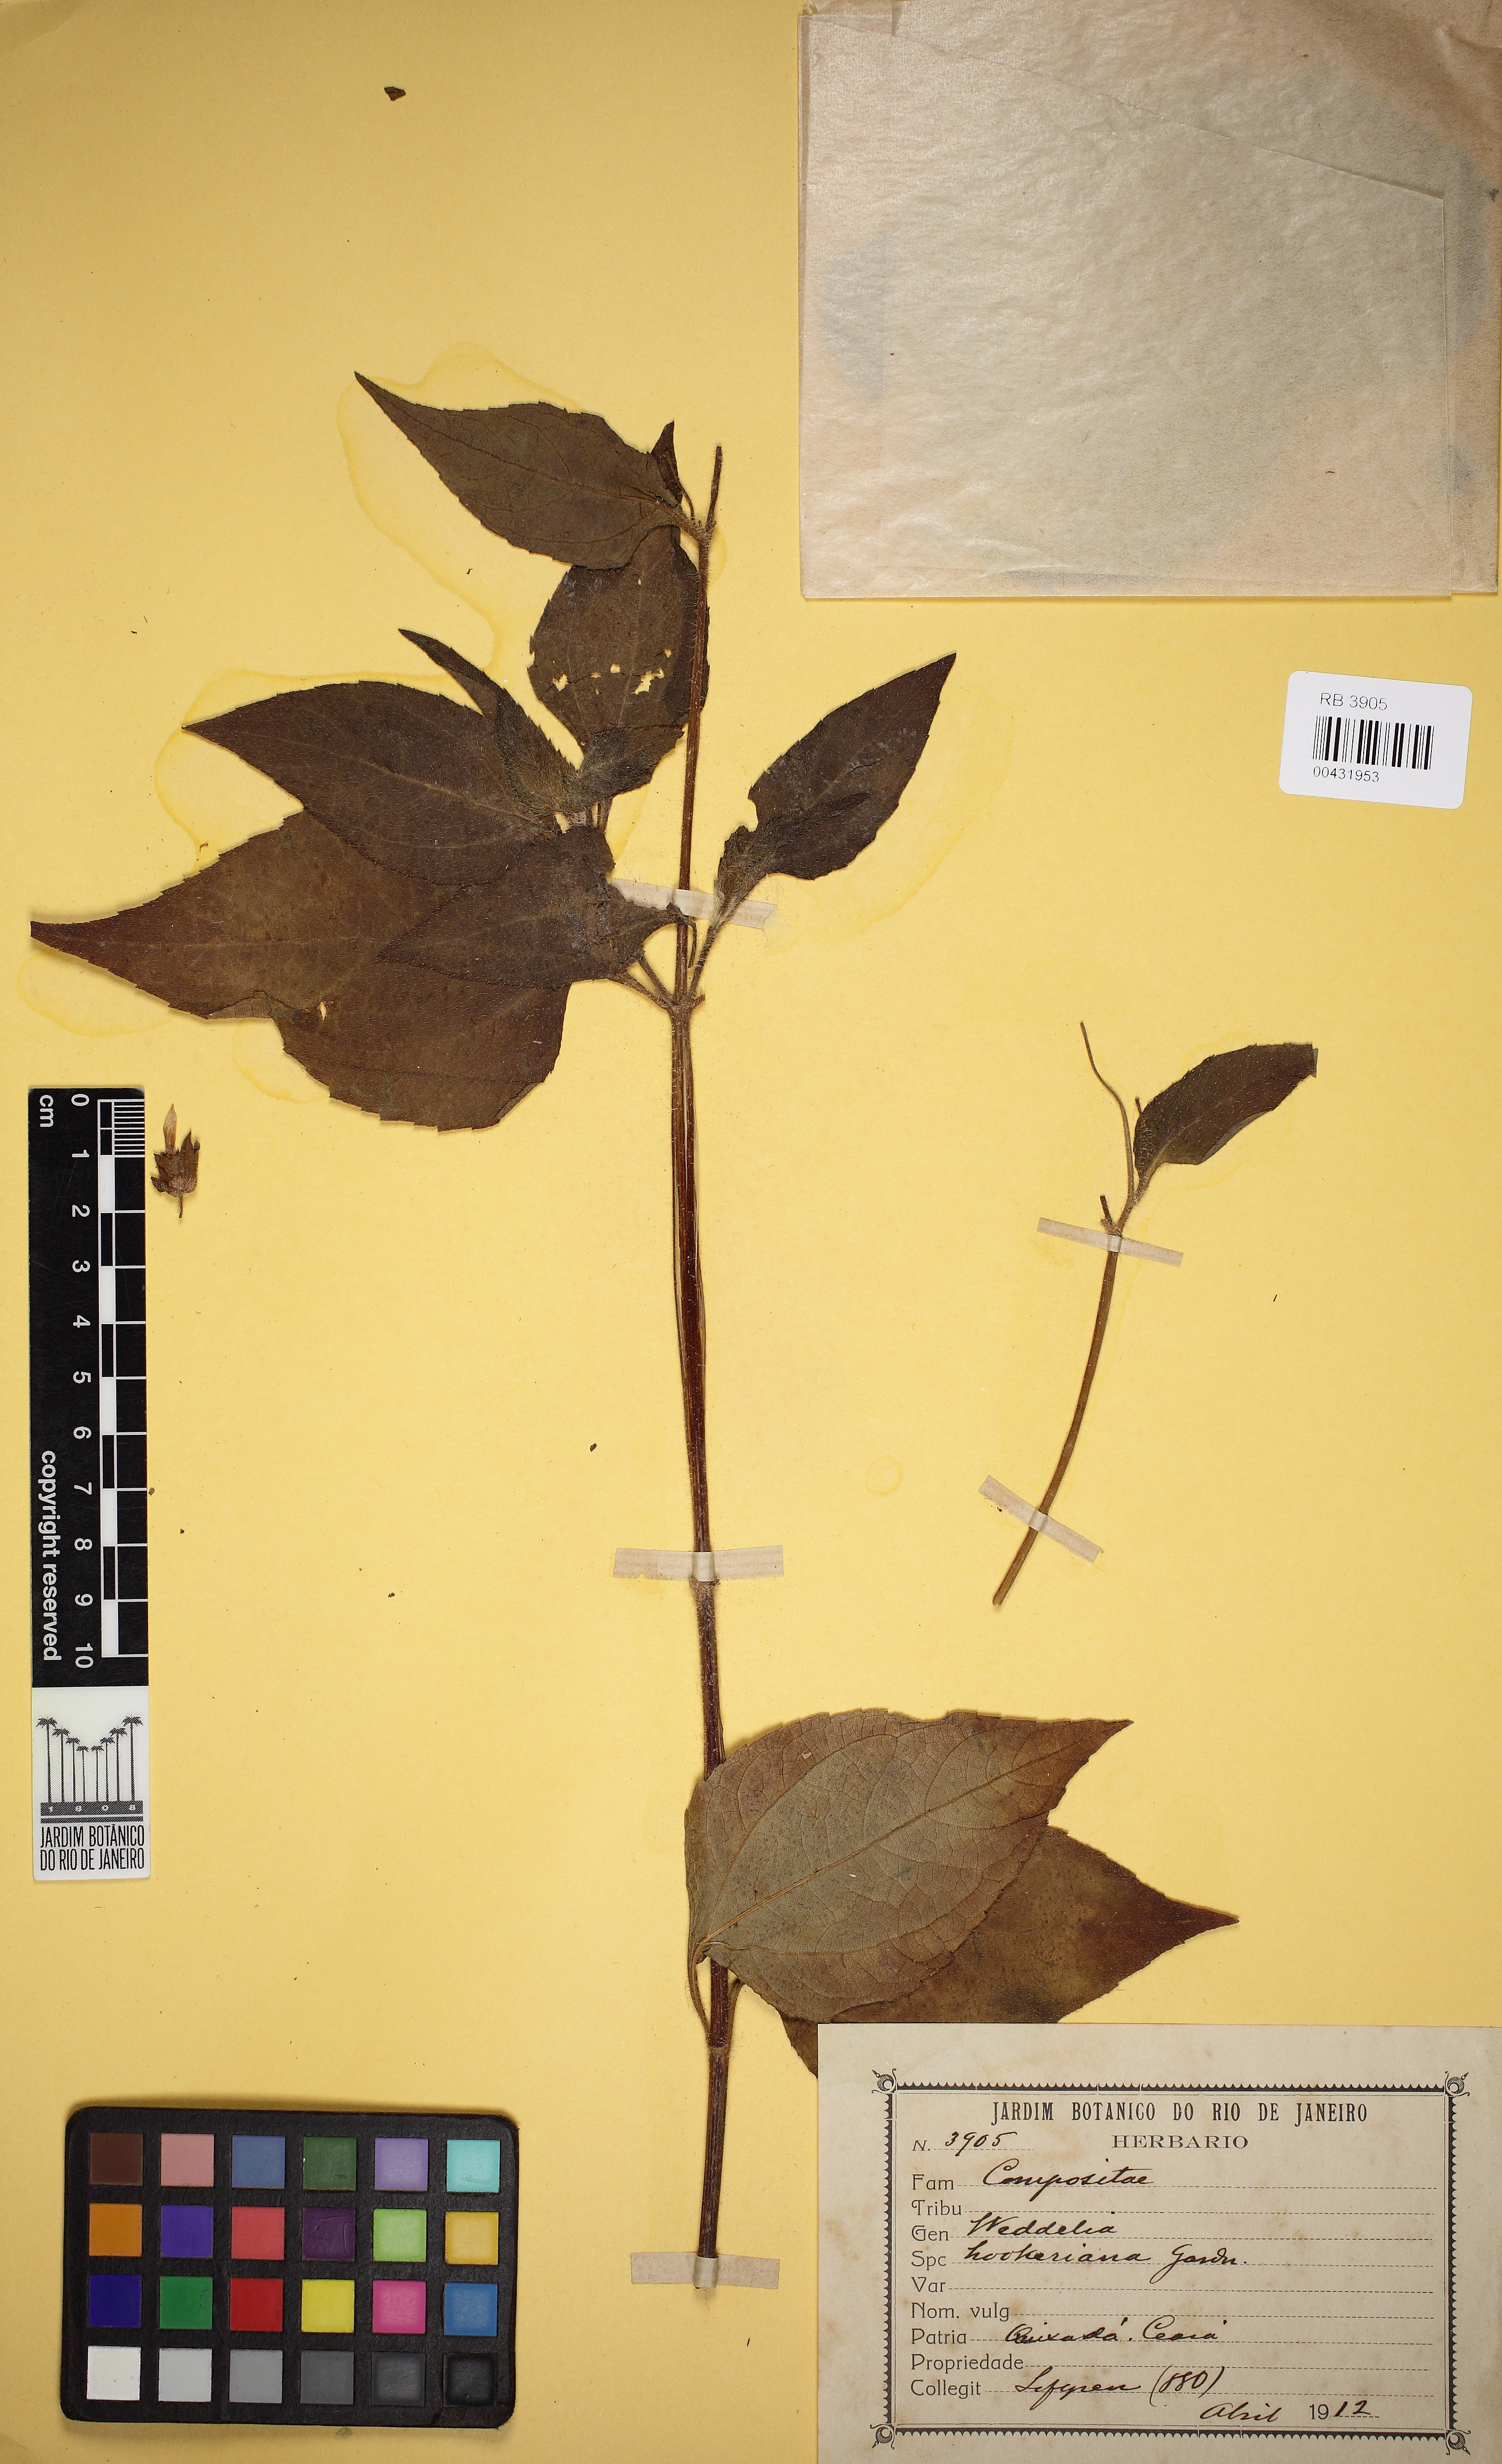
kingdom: Plantae
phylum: Tracheophyta
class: Magnoliopsida
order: Asterales
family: Asteraceae
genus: Wedelia
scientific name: Wedelia hookeriana
